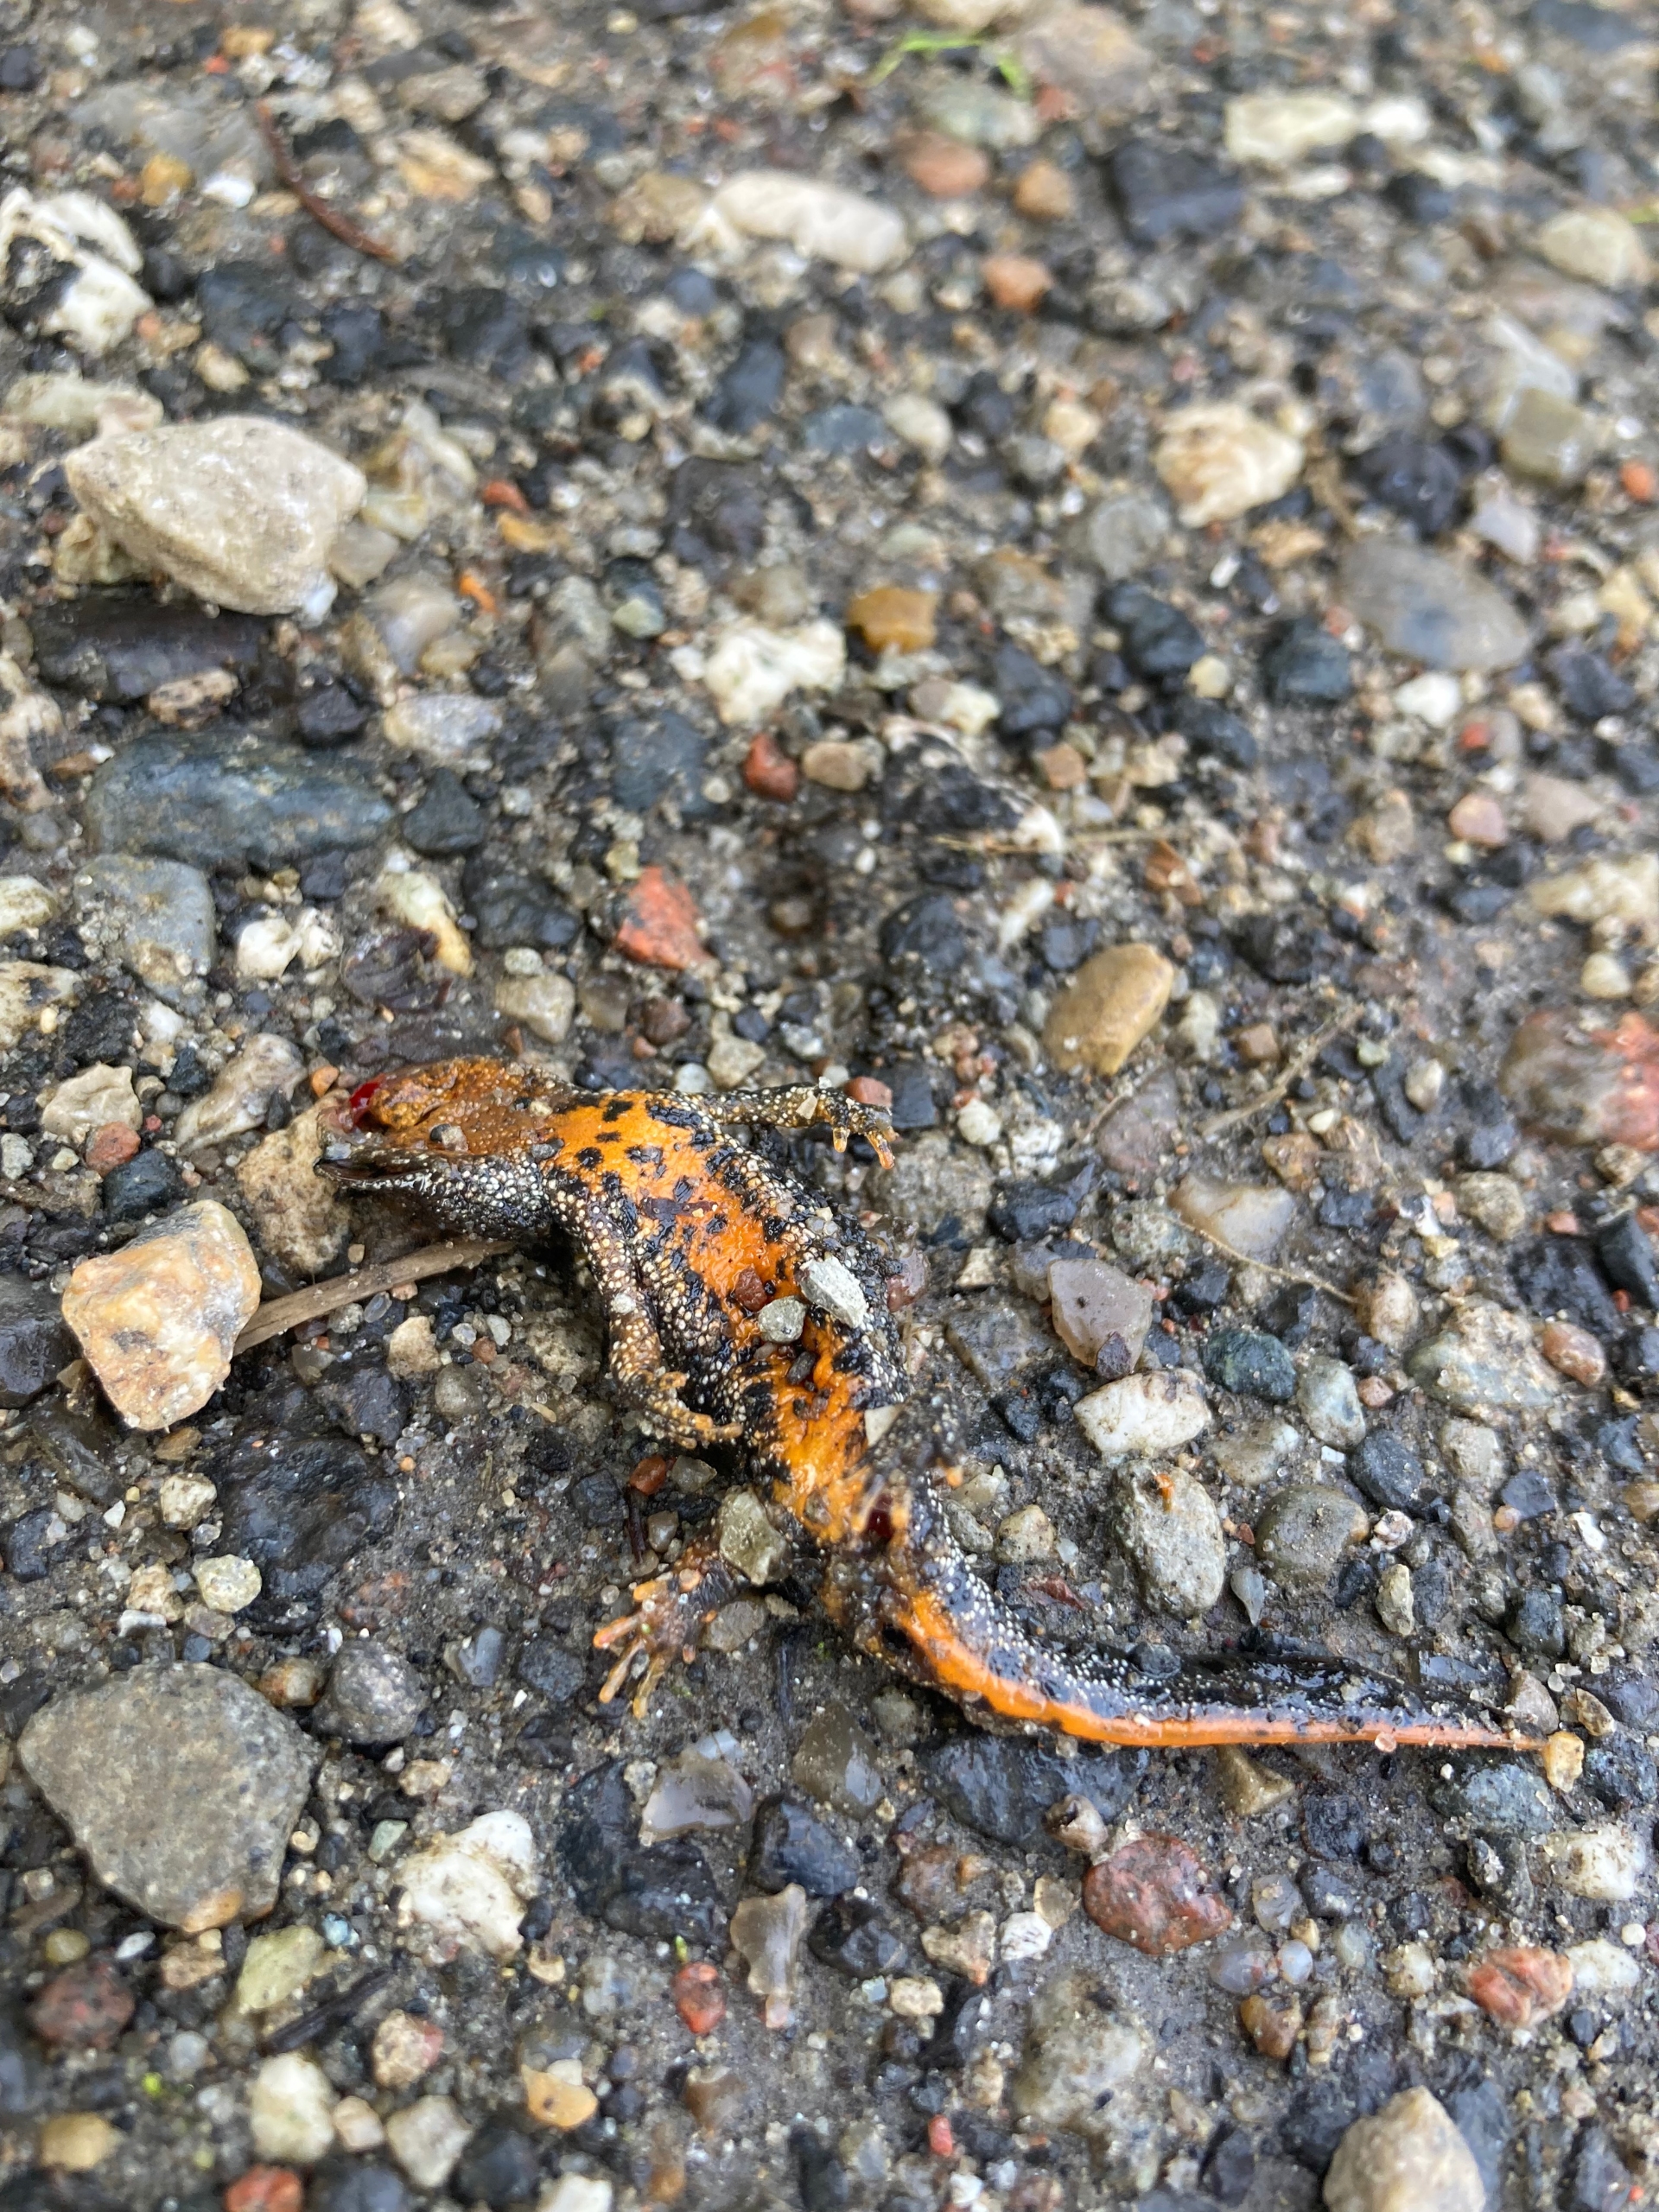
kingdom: Animalia
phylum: Chordata
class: Amphibia
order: Caudata
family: Salamandridae
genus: Triturus
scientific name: Triturus cristatus
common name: Stor vandsalamander
